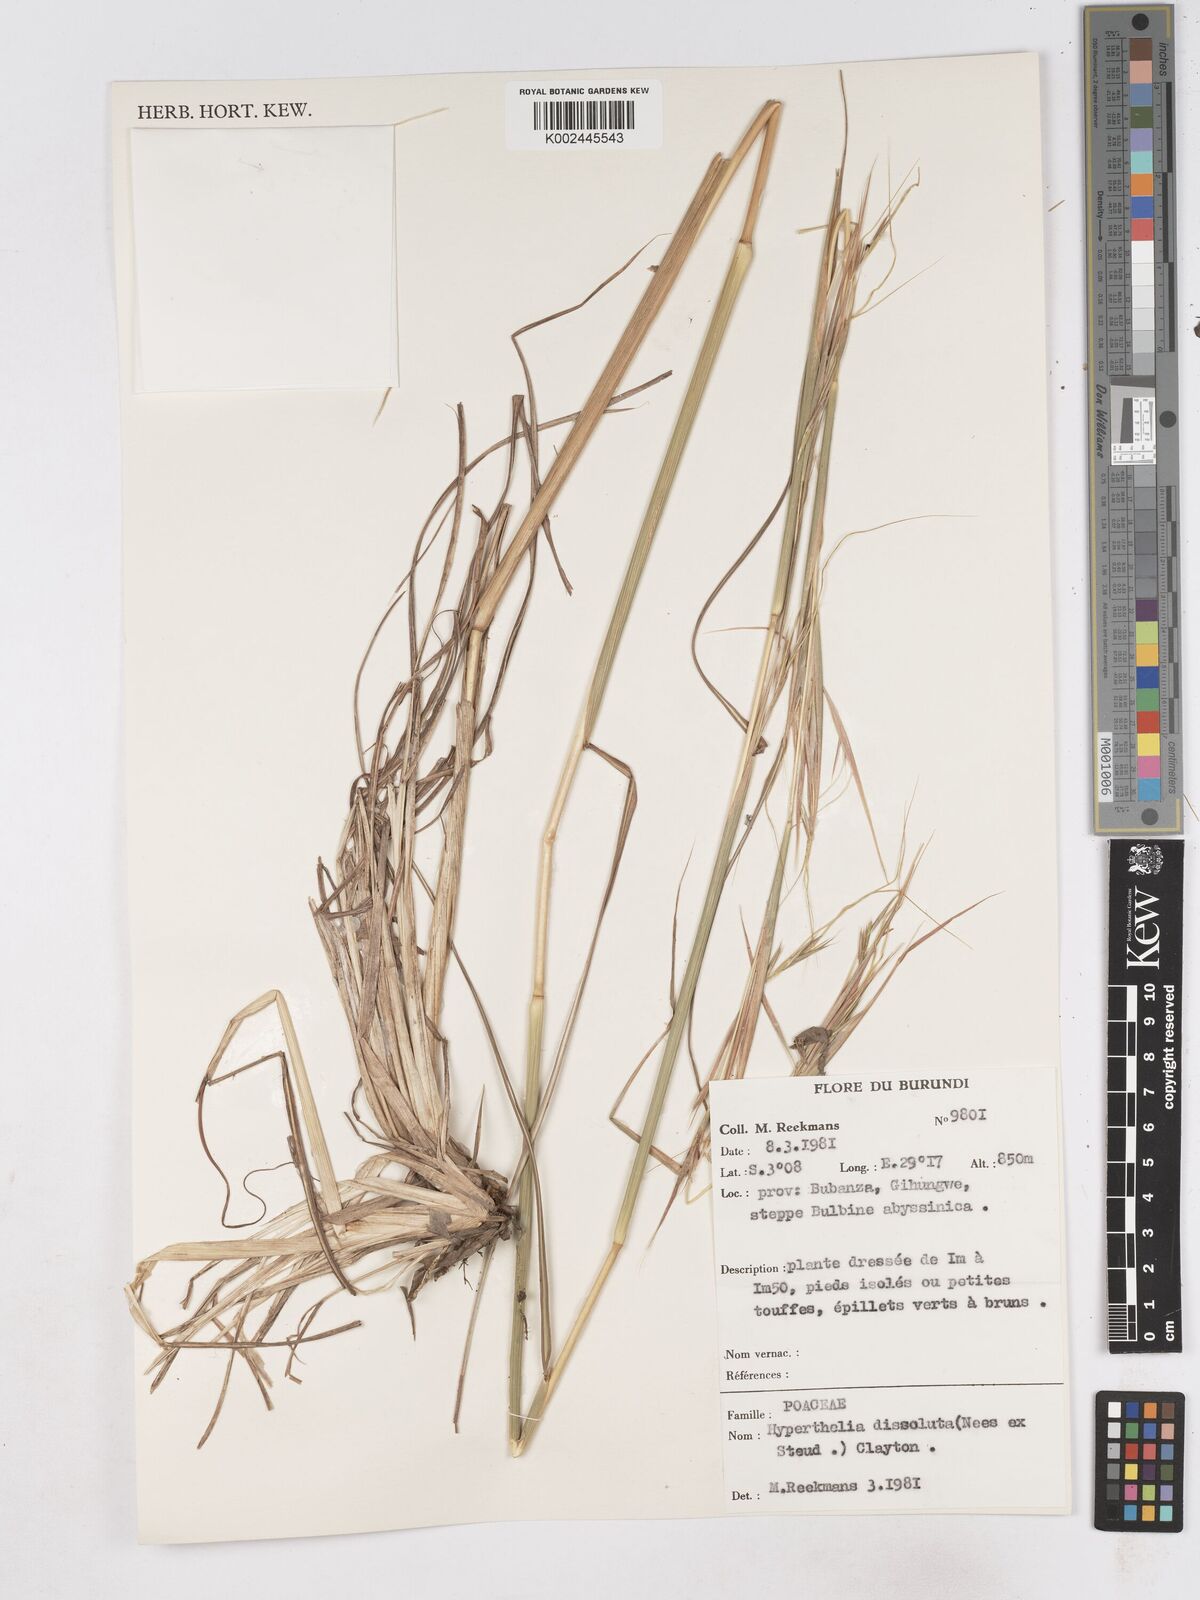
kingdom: Plantae
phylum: Tracheophyta
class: Liliopsida
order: Poales
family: Poaceae
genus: Hyperthelia
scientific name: Hyperthelia dissoluta
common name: Yellow thatching grass
